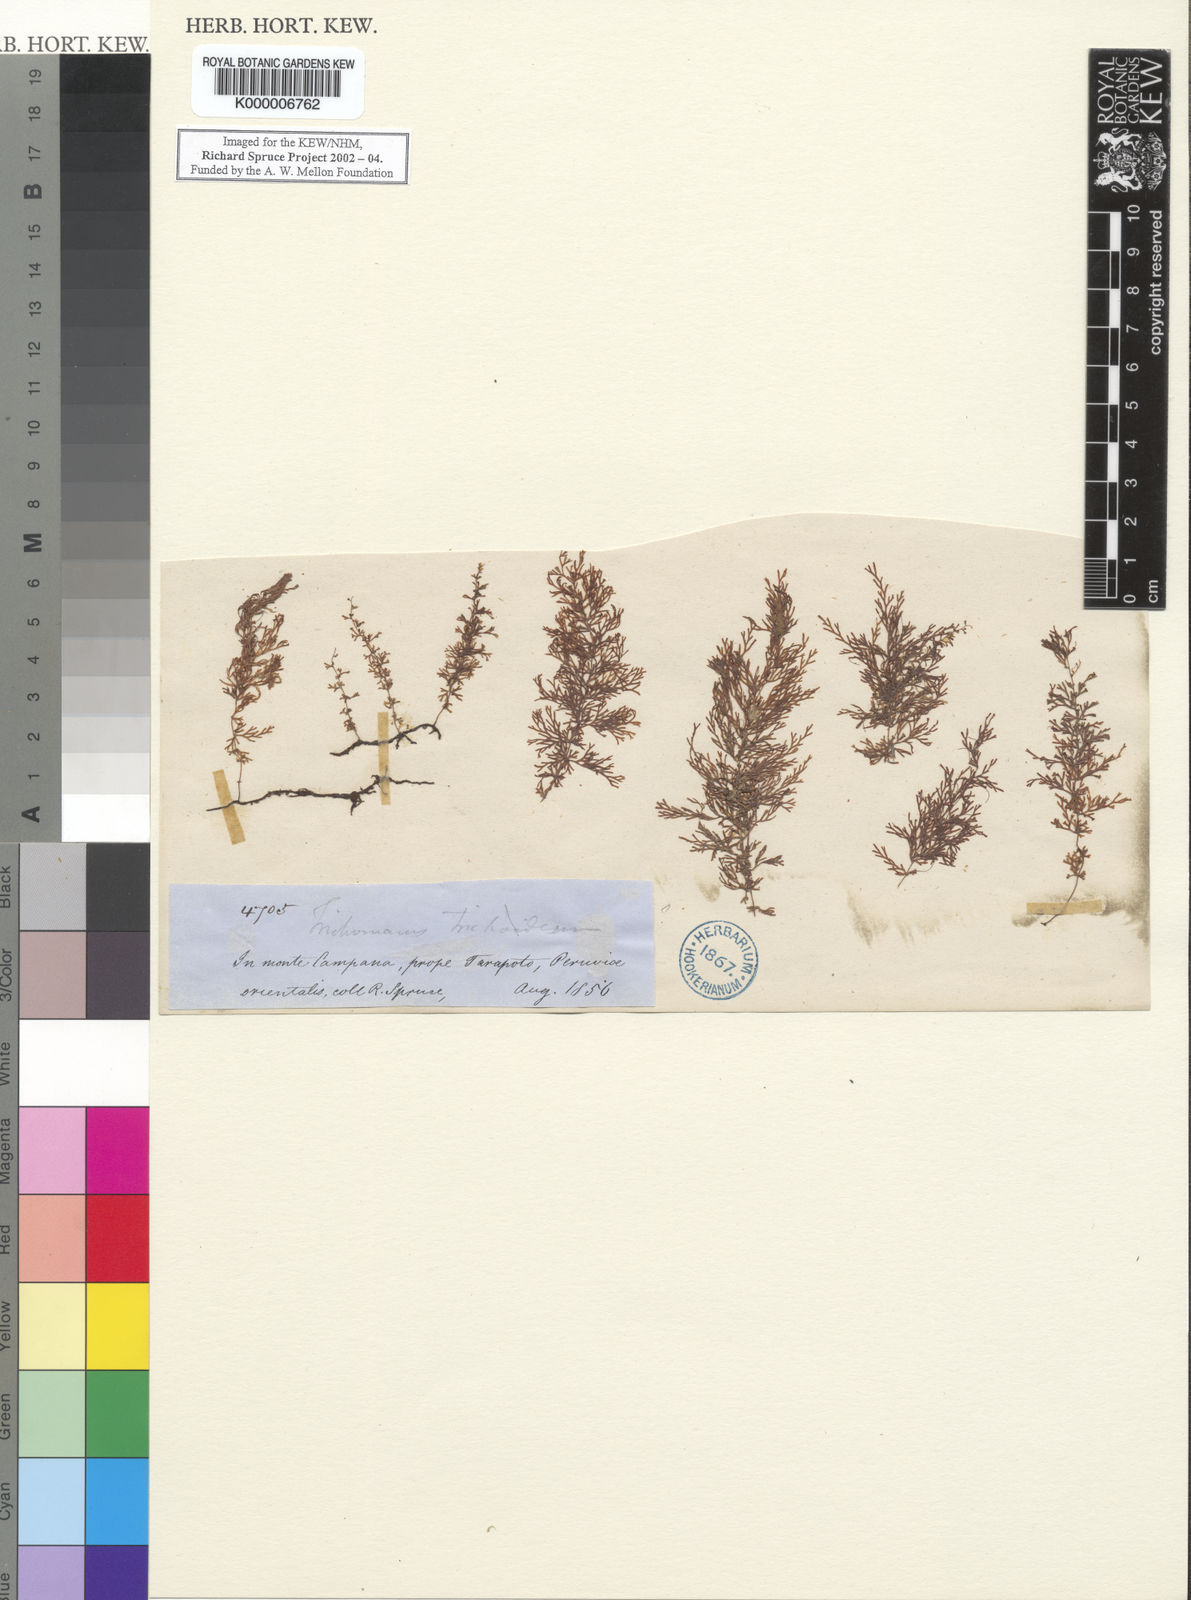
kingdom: Plantae
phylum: Tracheophyta
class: Polypodiopsida
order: Hymenophyllales
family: Hymenophyllaceae
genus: Trichomanes
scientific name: Trichomanes
